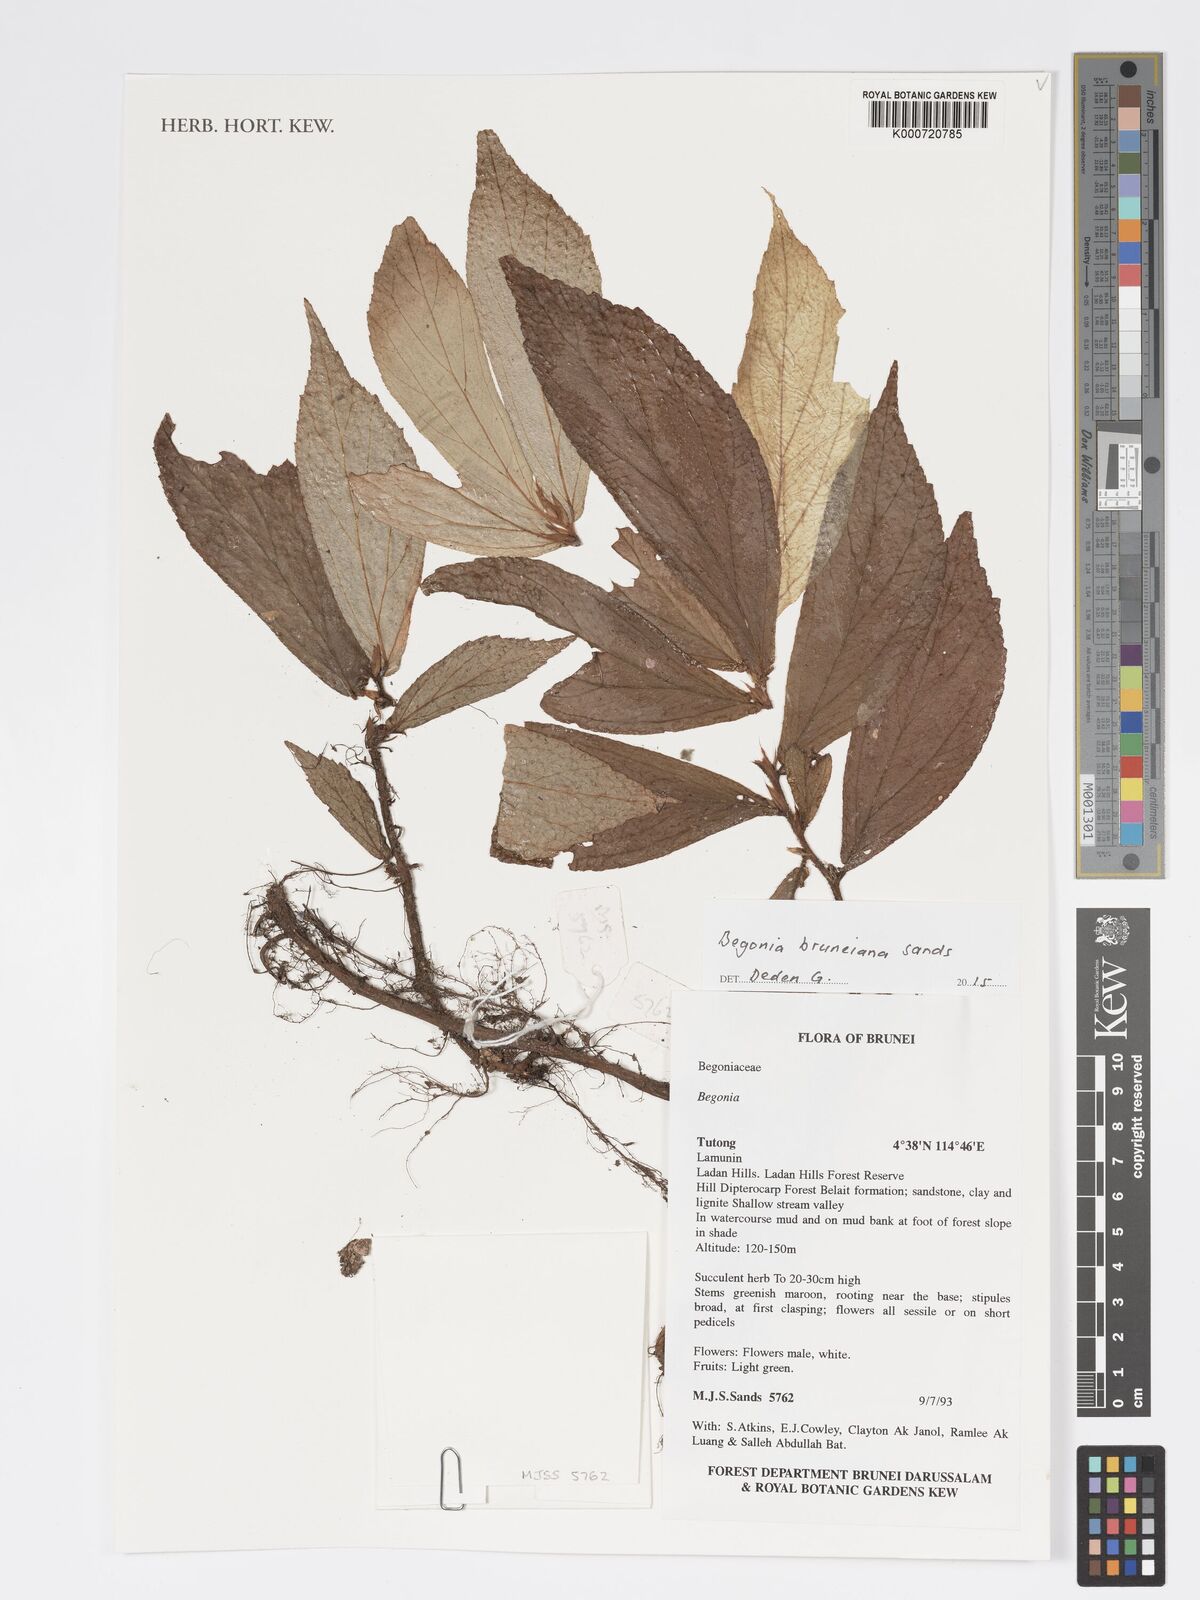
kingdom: Plantae
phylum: Tracheophyta
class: Magnoliopsida
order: Cucurbitales
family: Begoniaceae
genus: Begonia
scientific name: Begonia bruneiana
